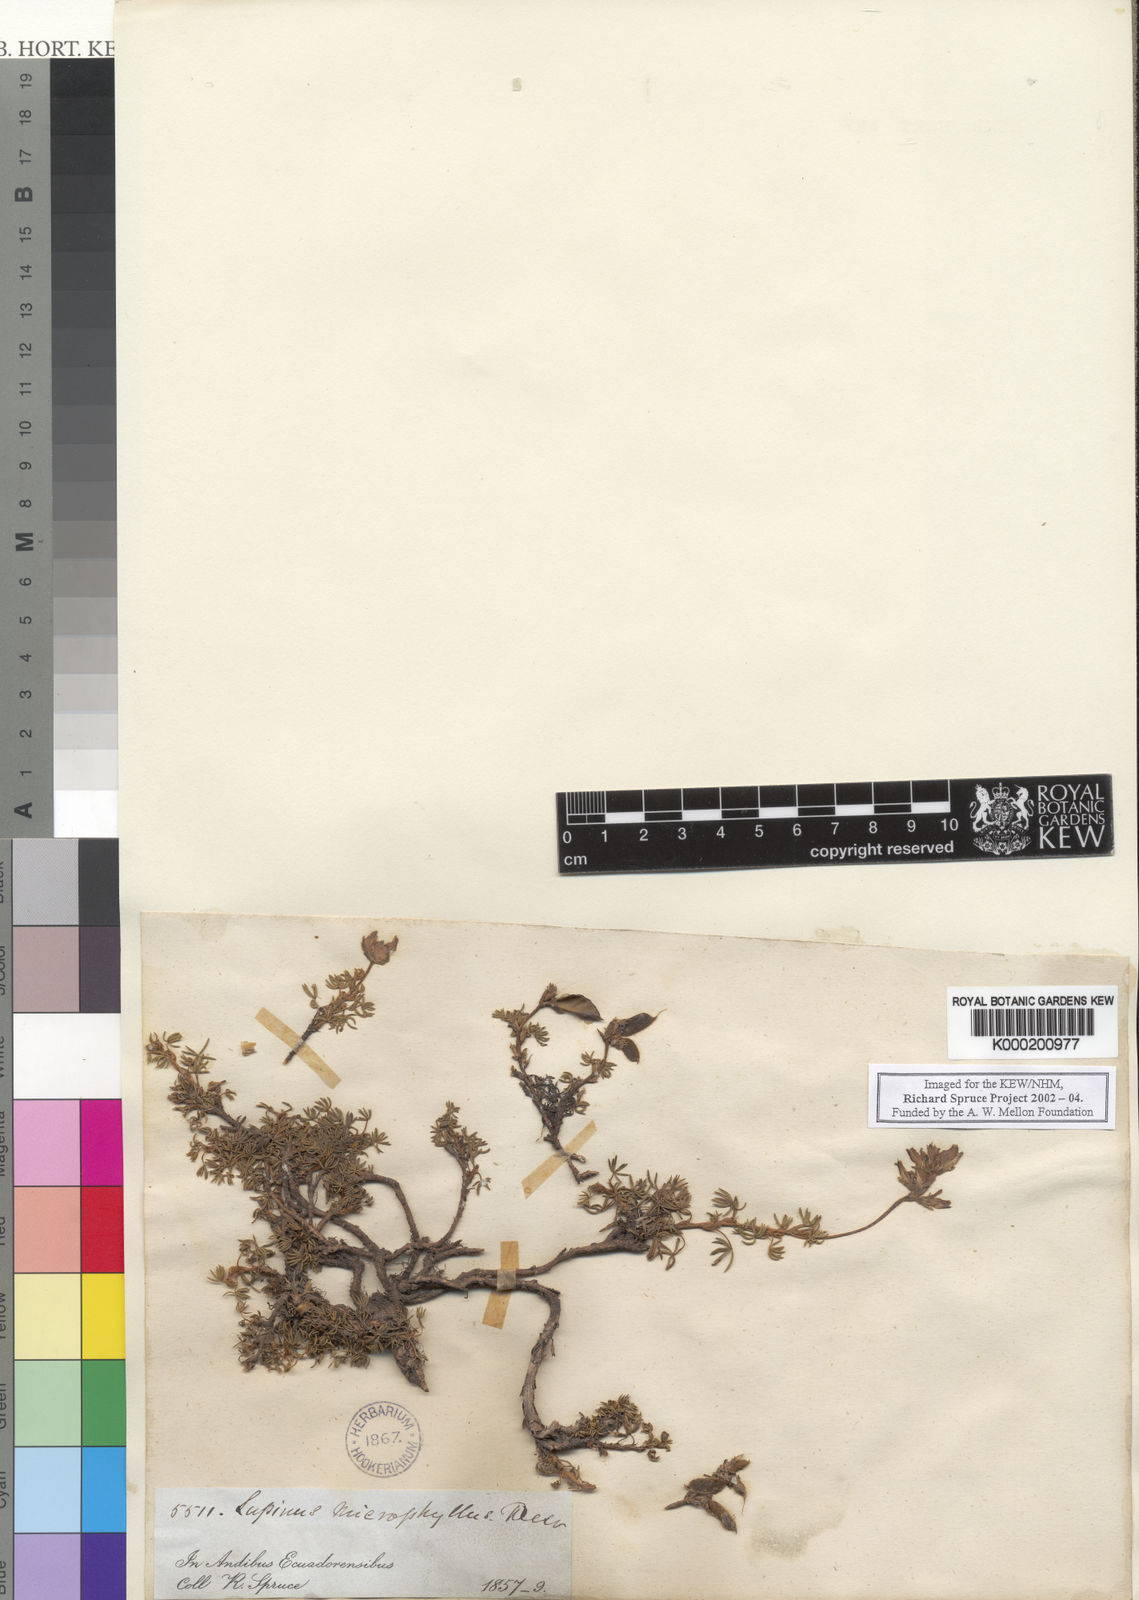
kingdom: Plantae
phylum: Tracheophyta
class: Magnoliopsida
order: Fabales
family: Fabaceae
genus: Lupinus
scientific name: Lupinus microphyllus
